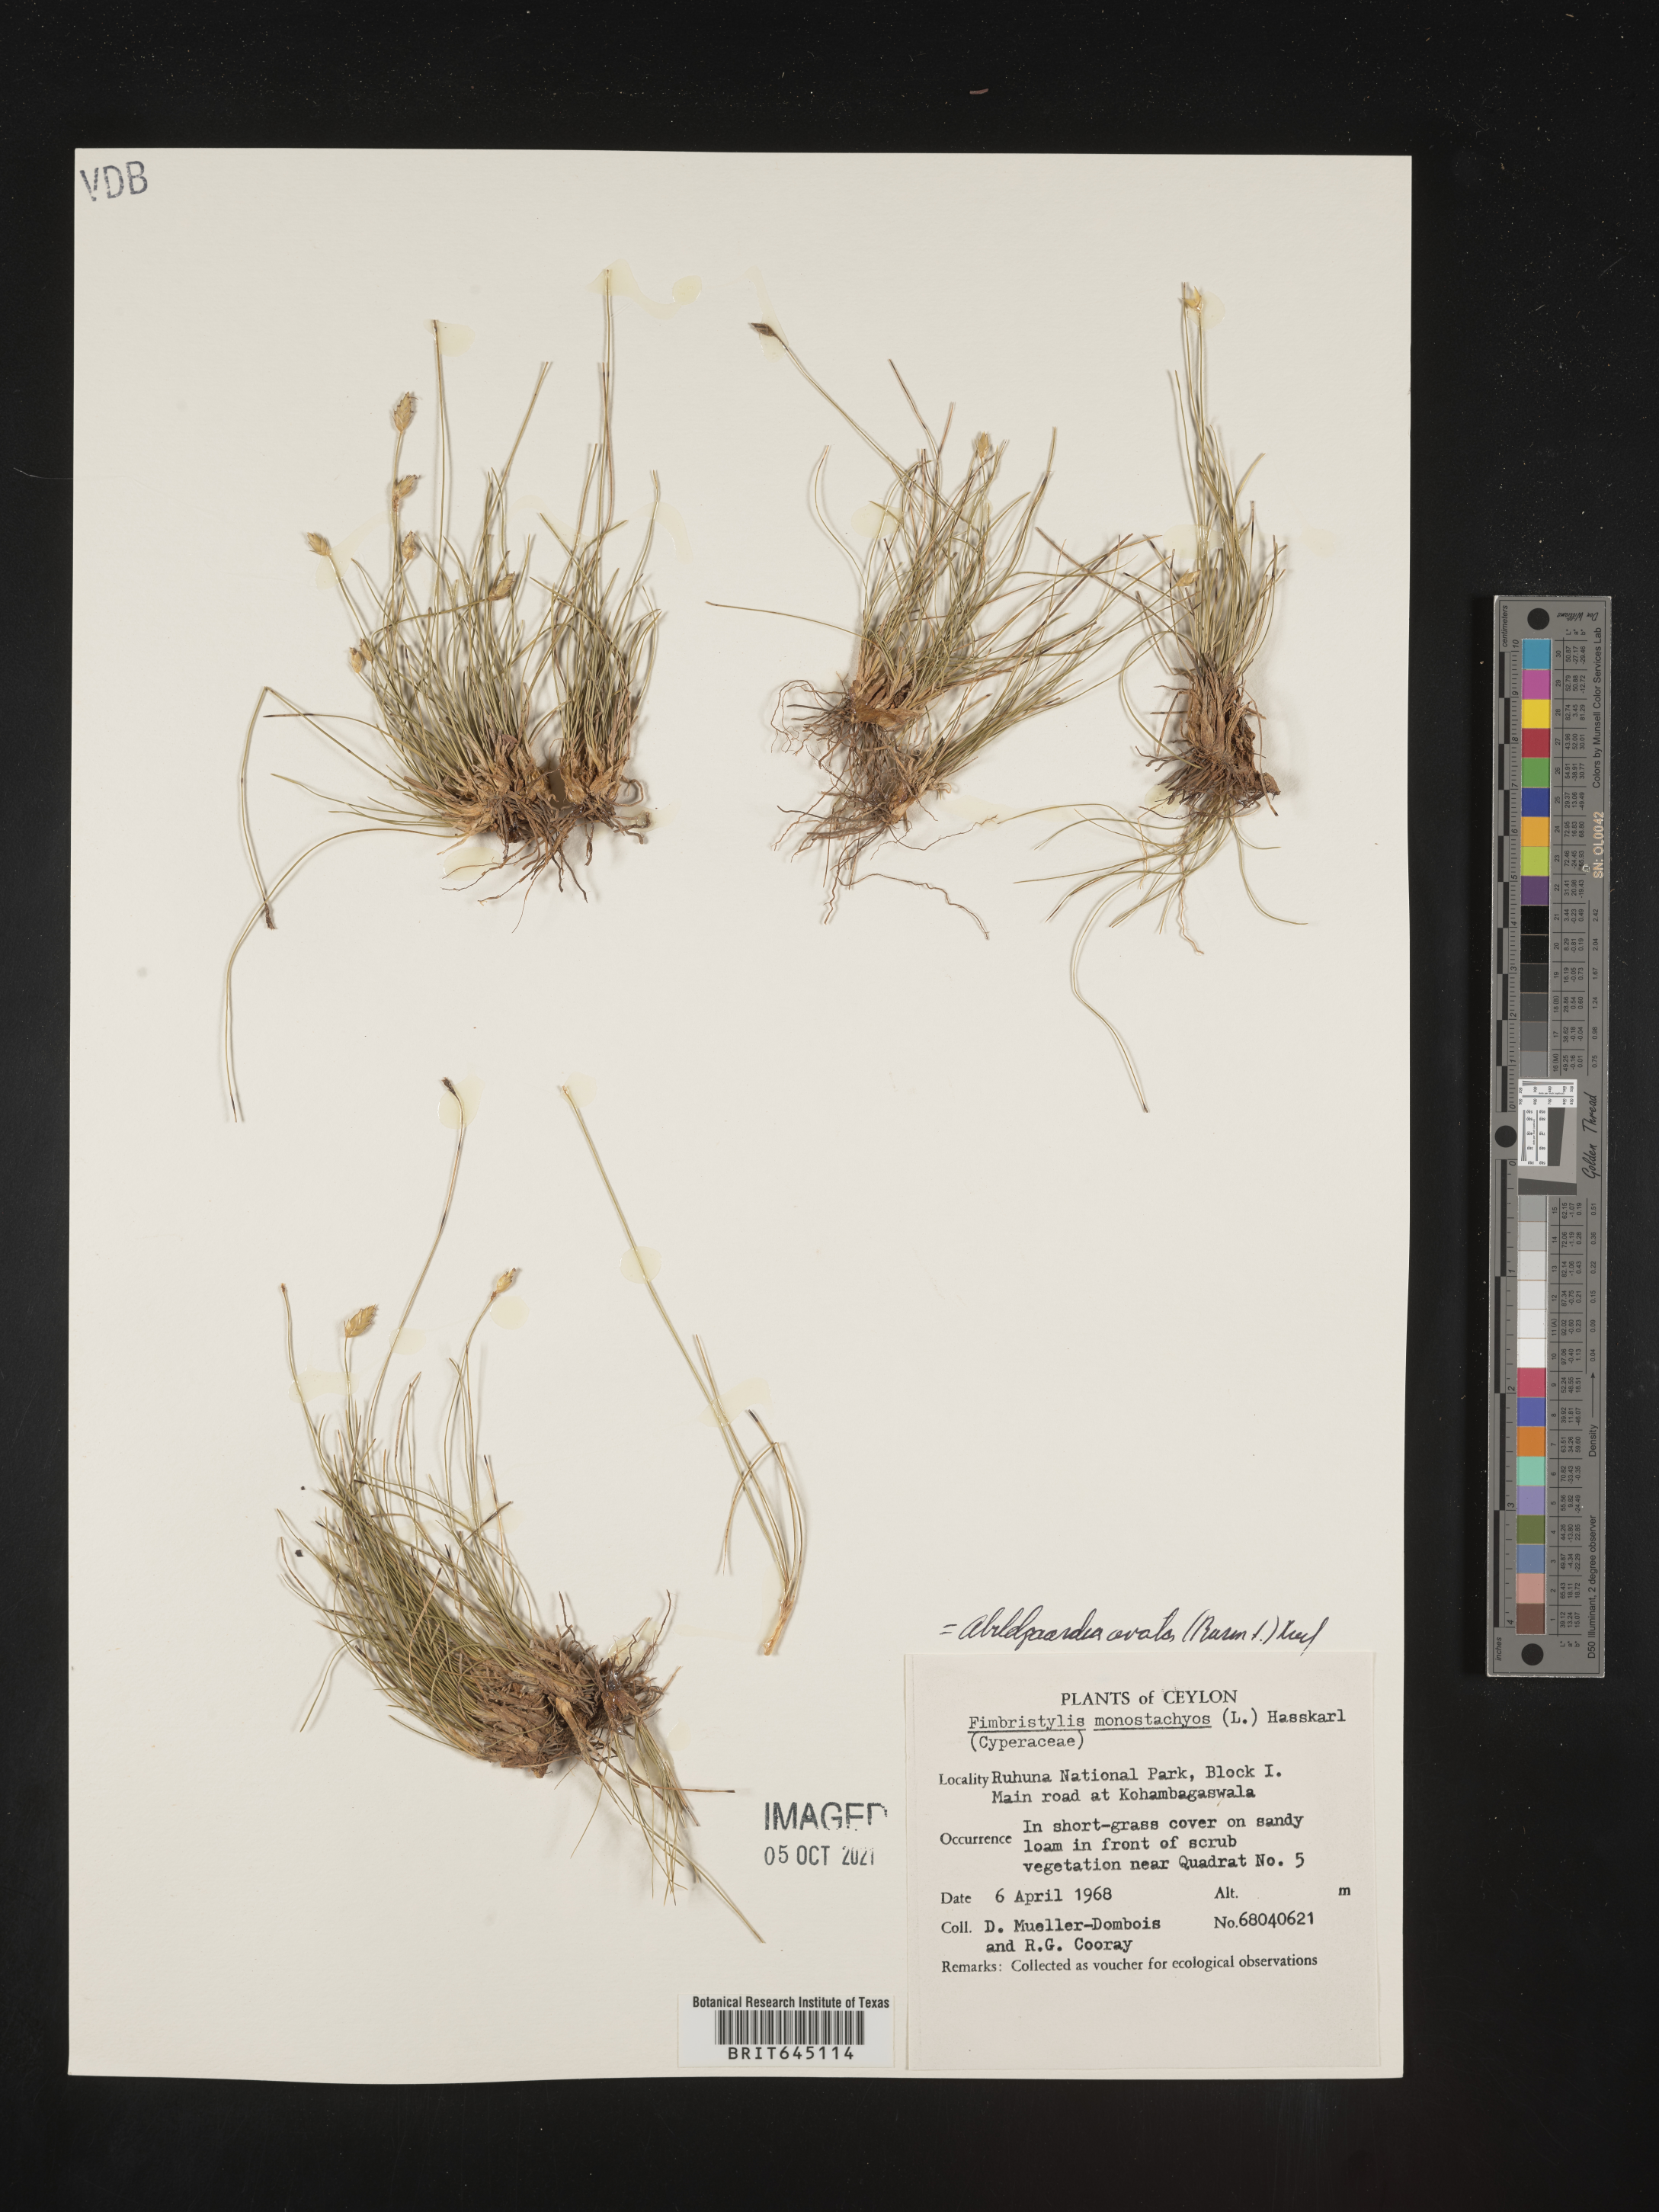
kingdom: Plantae
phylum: Tracheophyta
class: Liliopsida
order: Poales
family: Cyperaceae
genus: Abildgaardia
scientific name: Abildgaardia ovata
